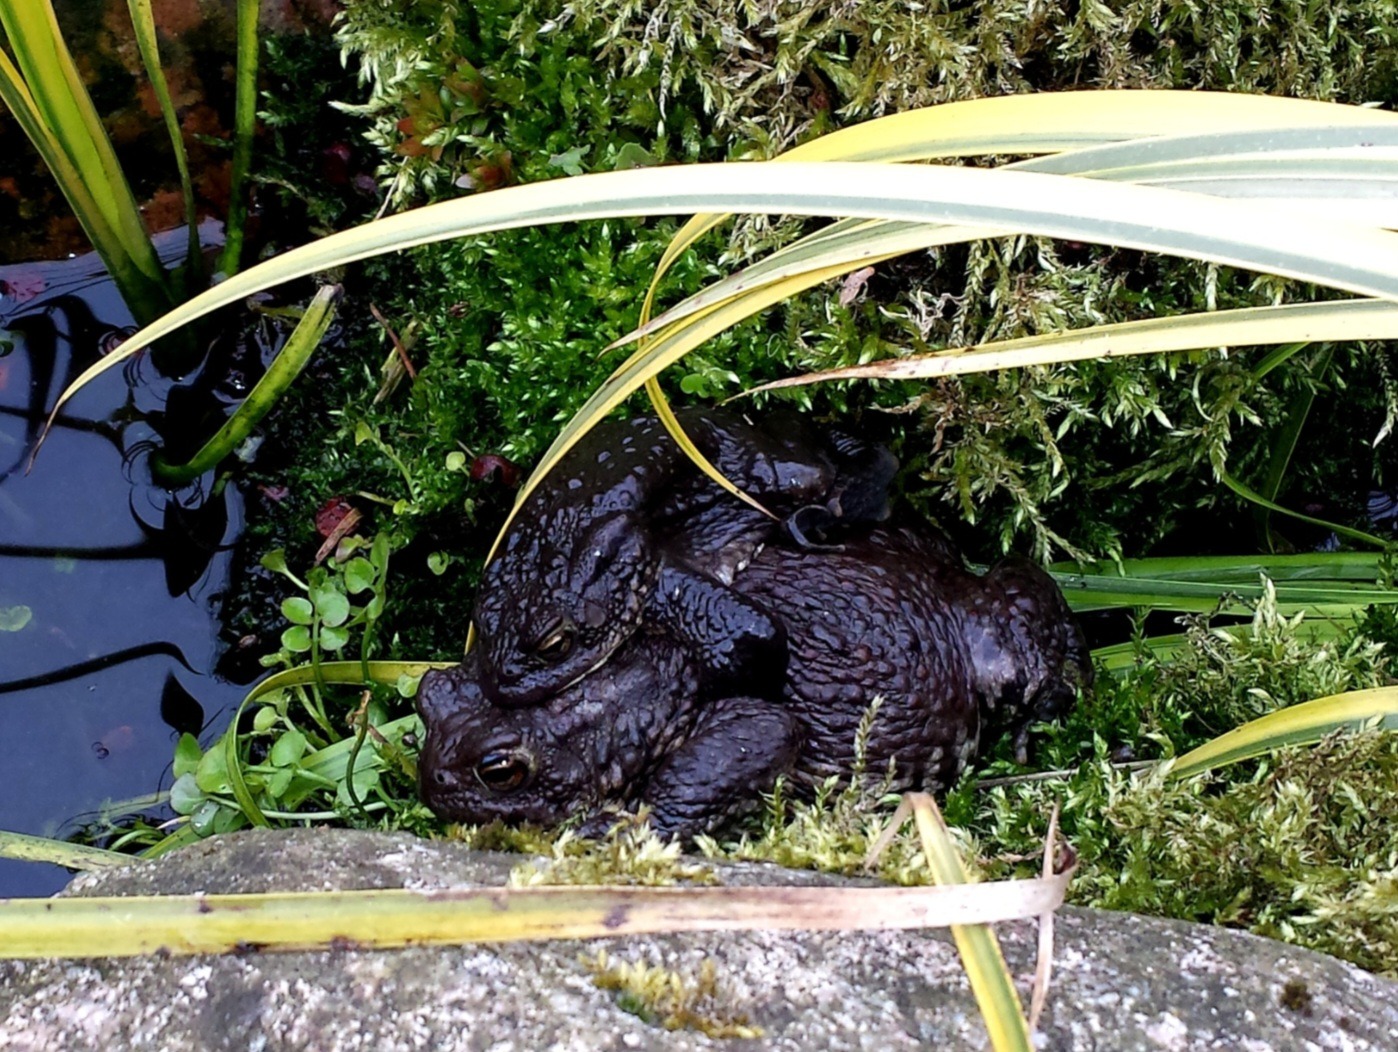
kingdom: Animalia
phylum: Chordata
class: Amphibia
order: Anura
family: Bufonidae
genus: Bufo
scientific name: Bufo bufo
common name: Skrubtudse
